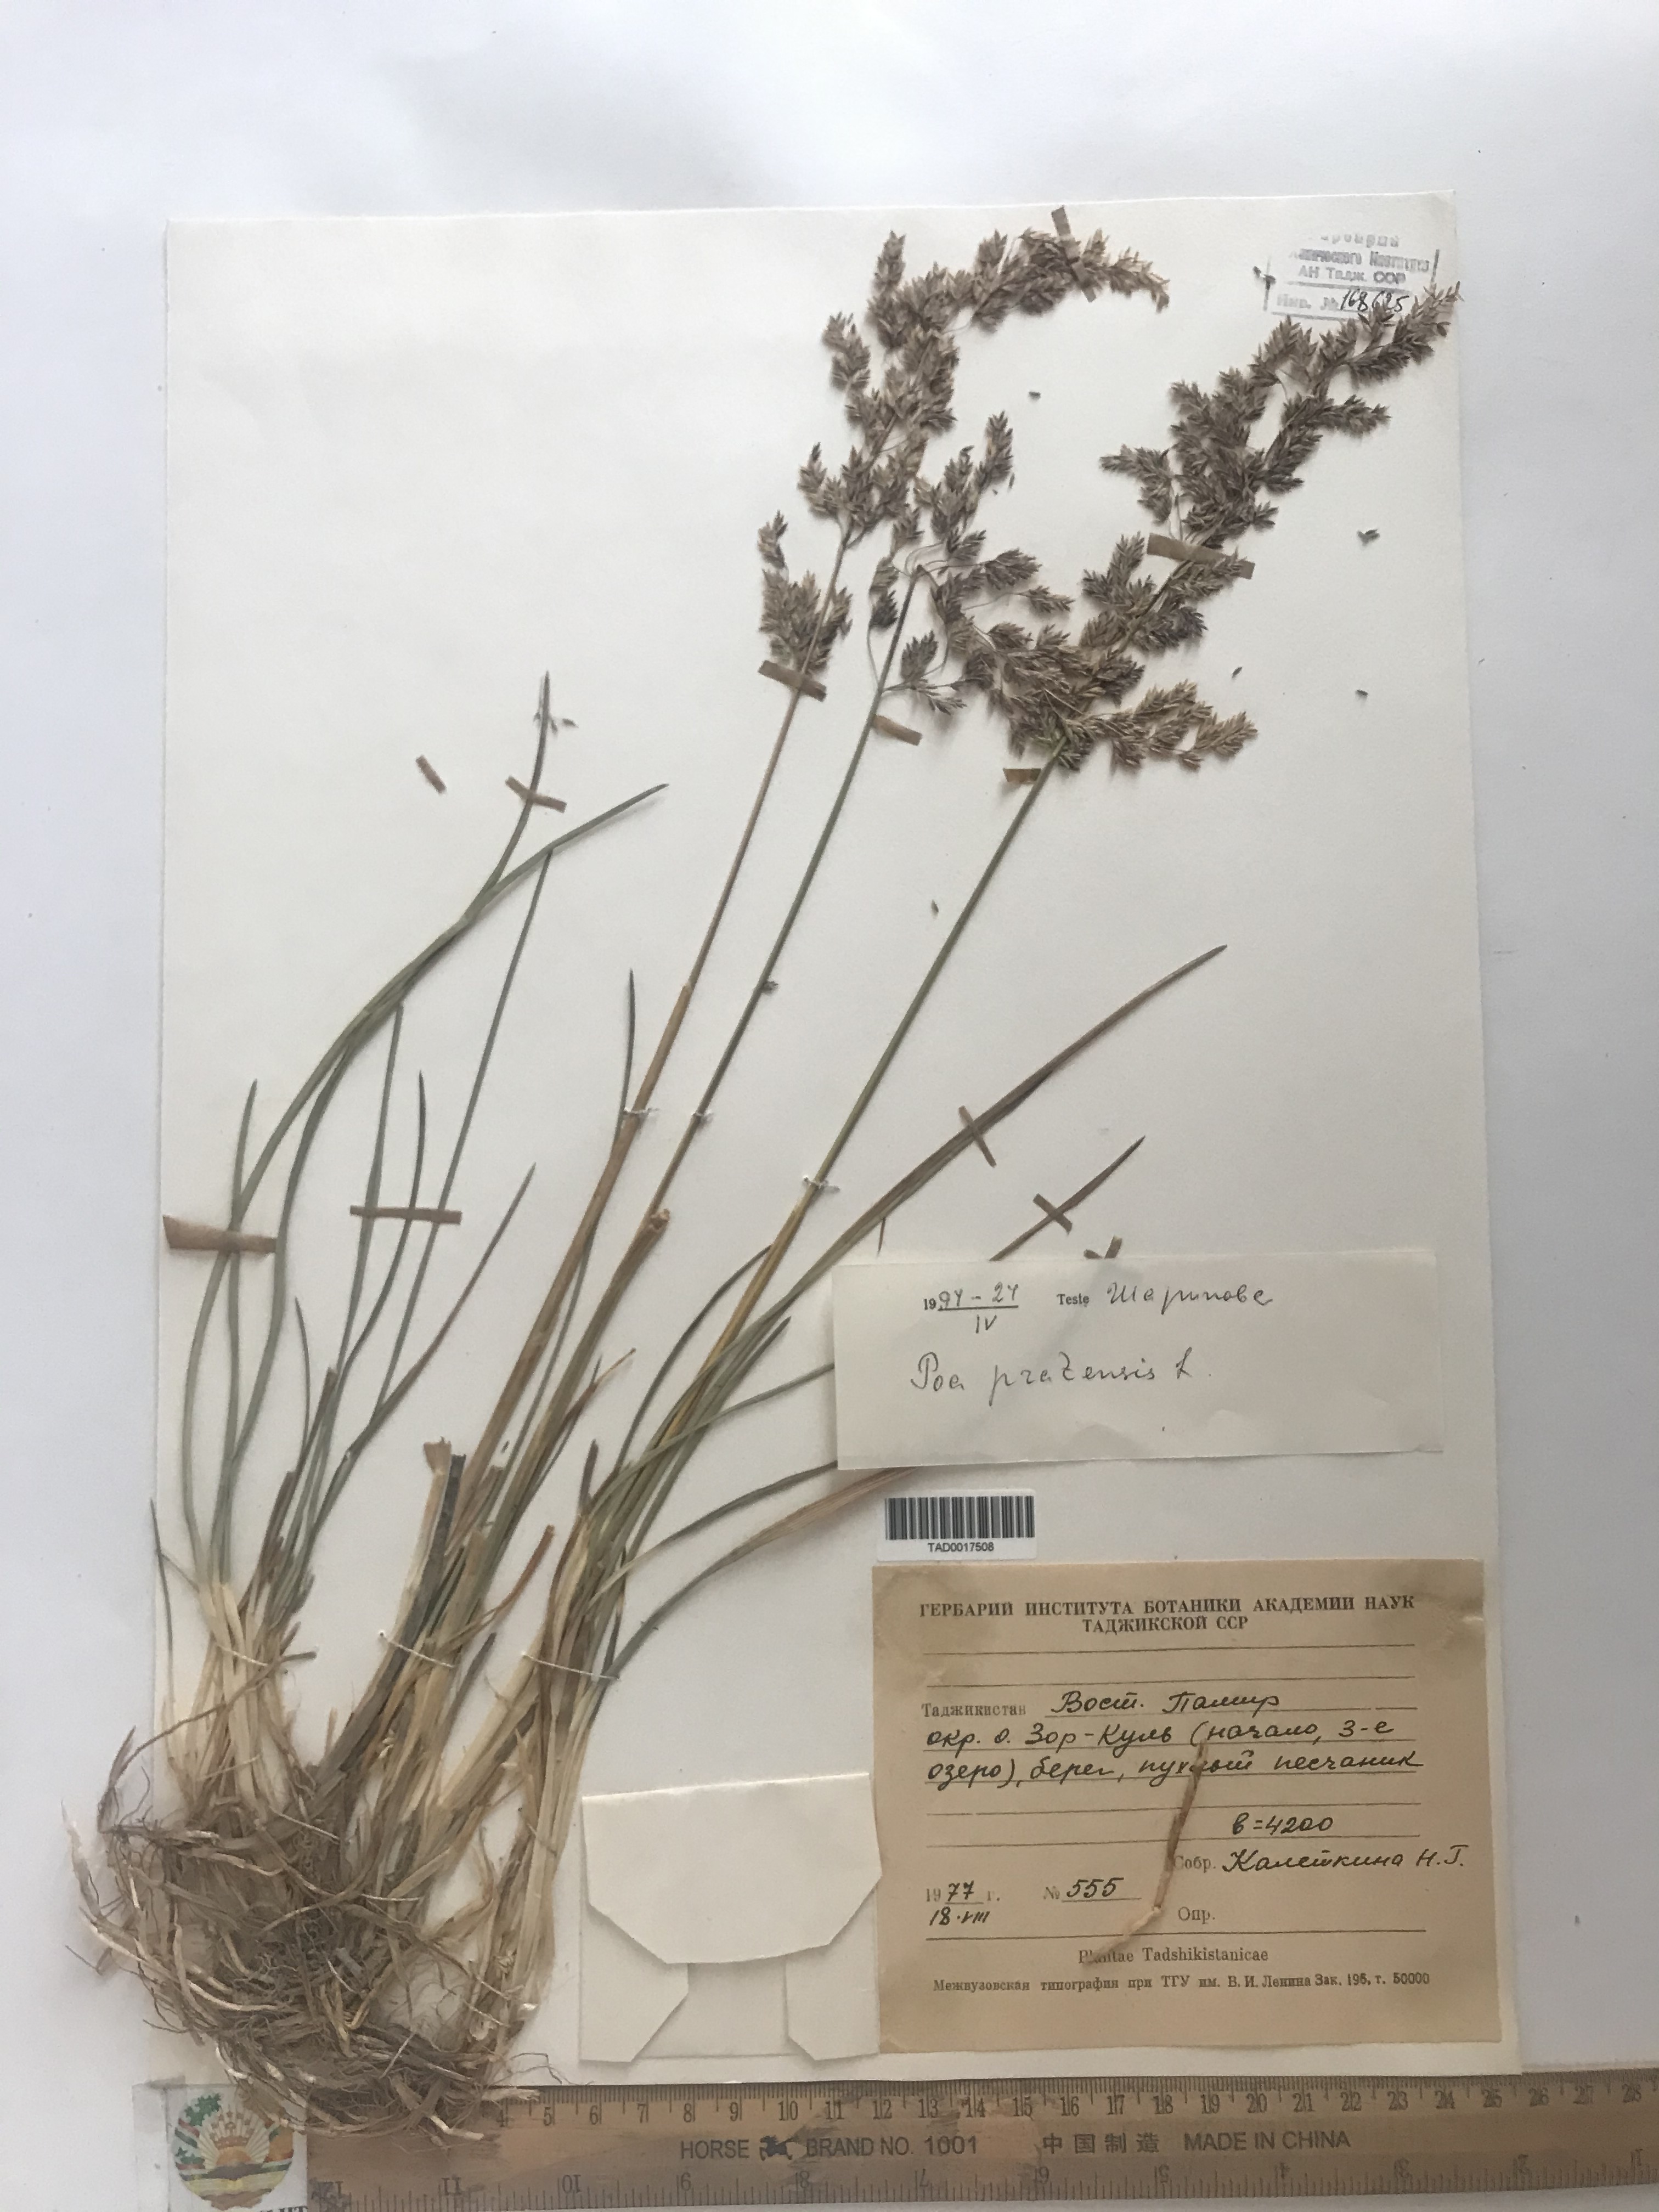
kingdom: Plantae
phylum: Tracheophyta
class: Liliopsida
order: Poales
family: Poaceae
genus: Poa
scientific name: Poa pratensis
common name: Kentucky bluegrass
